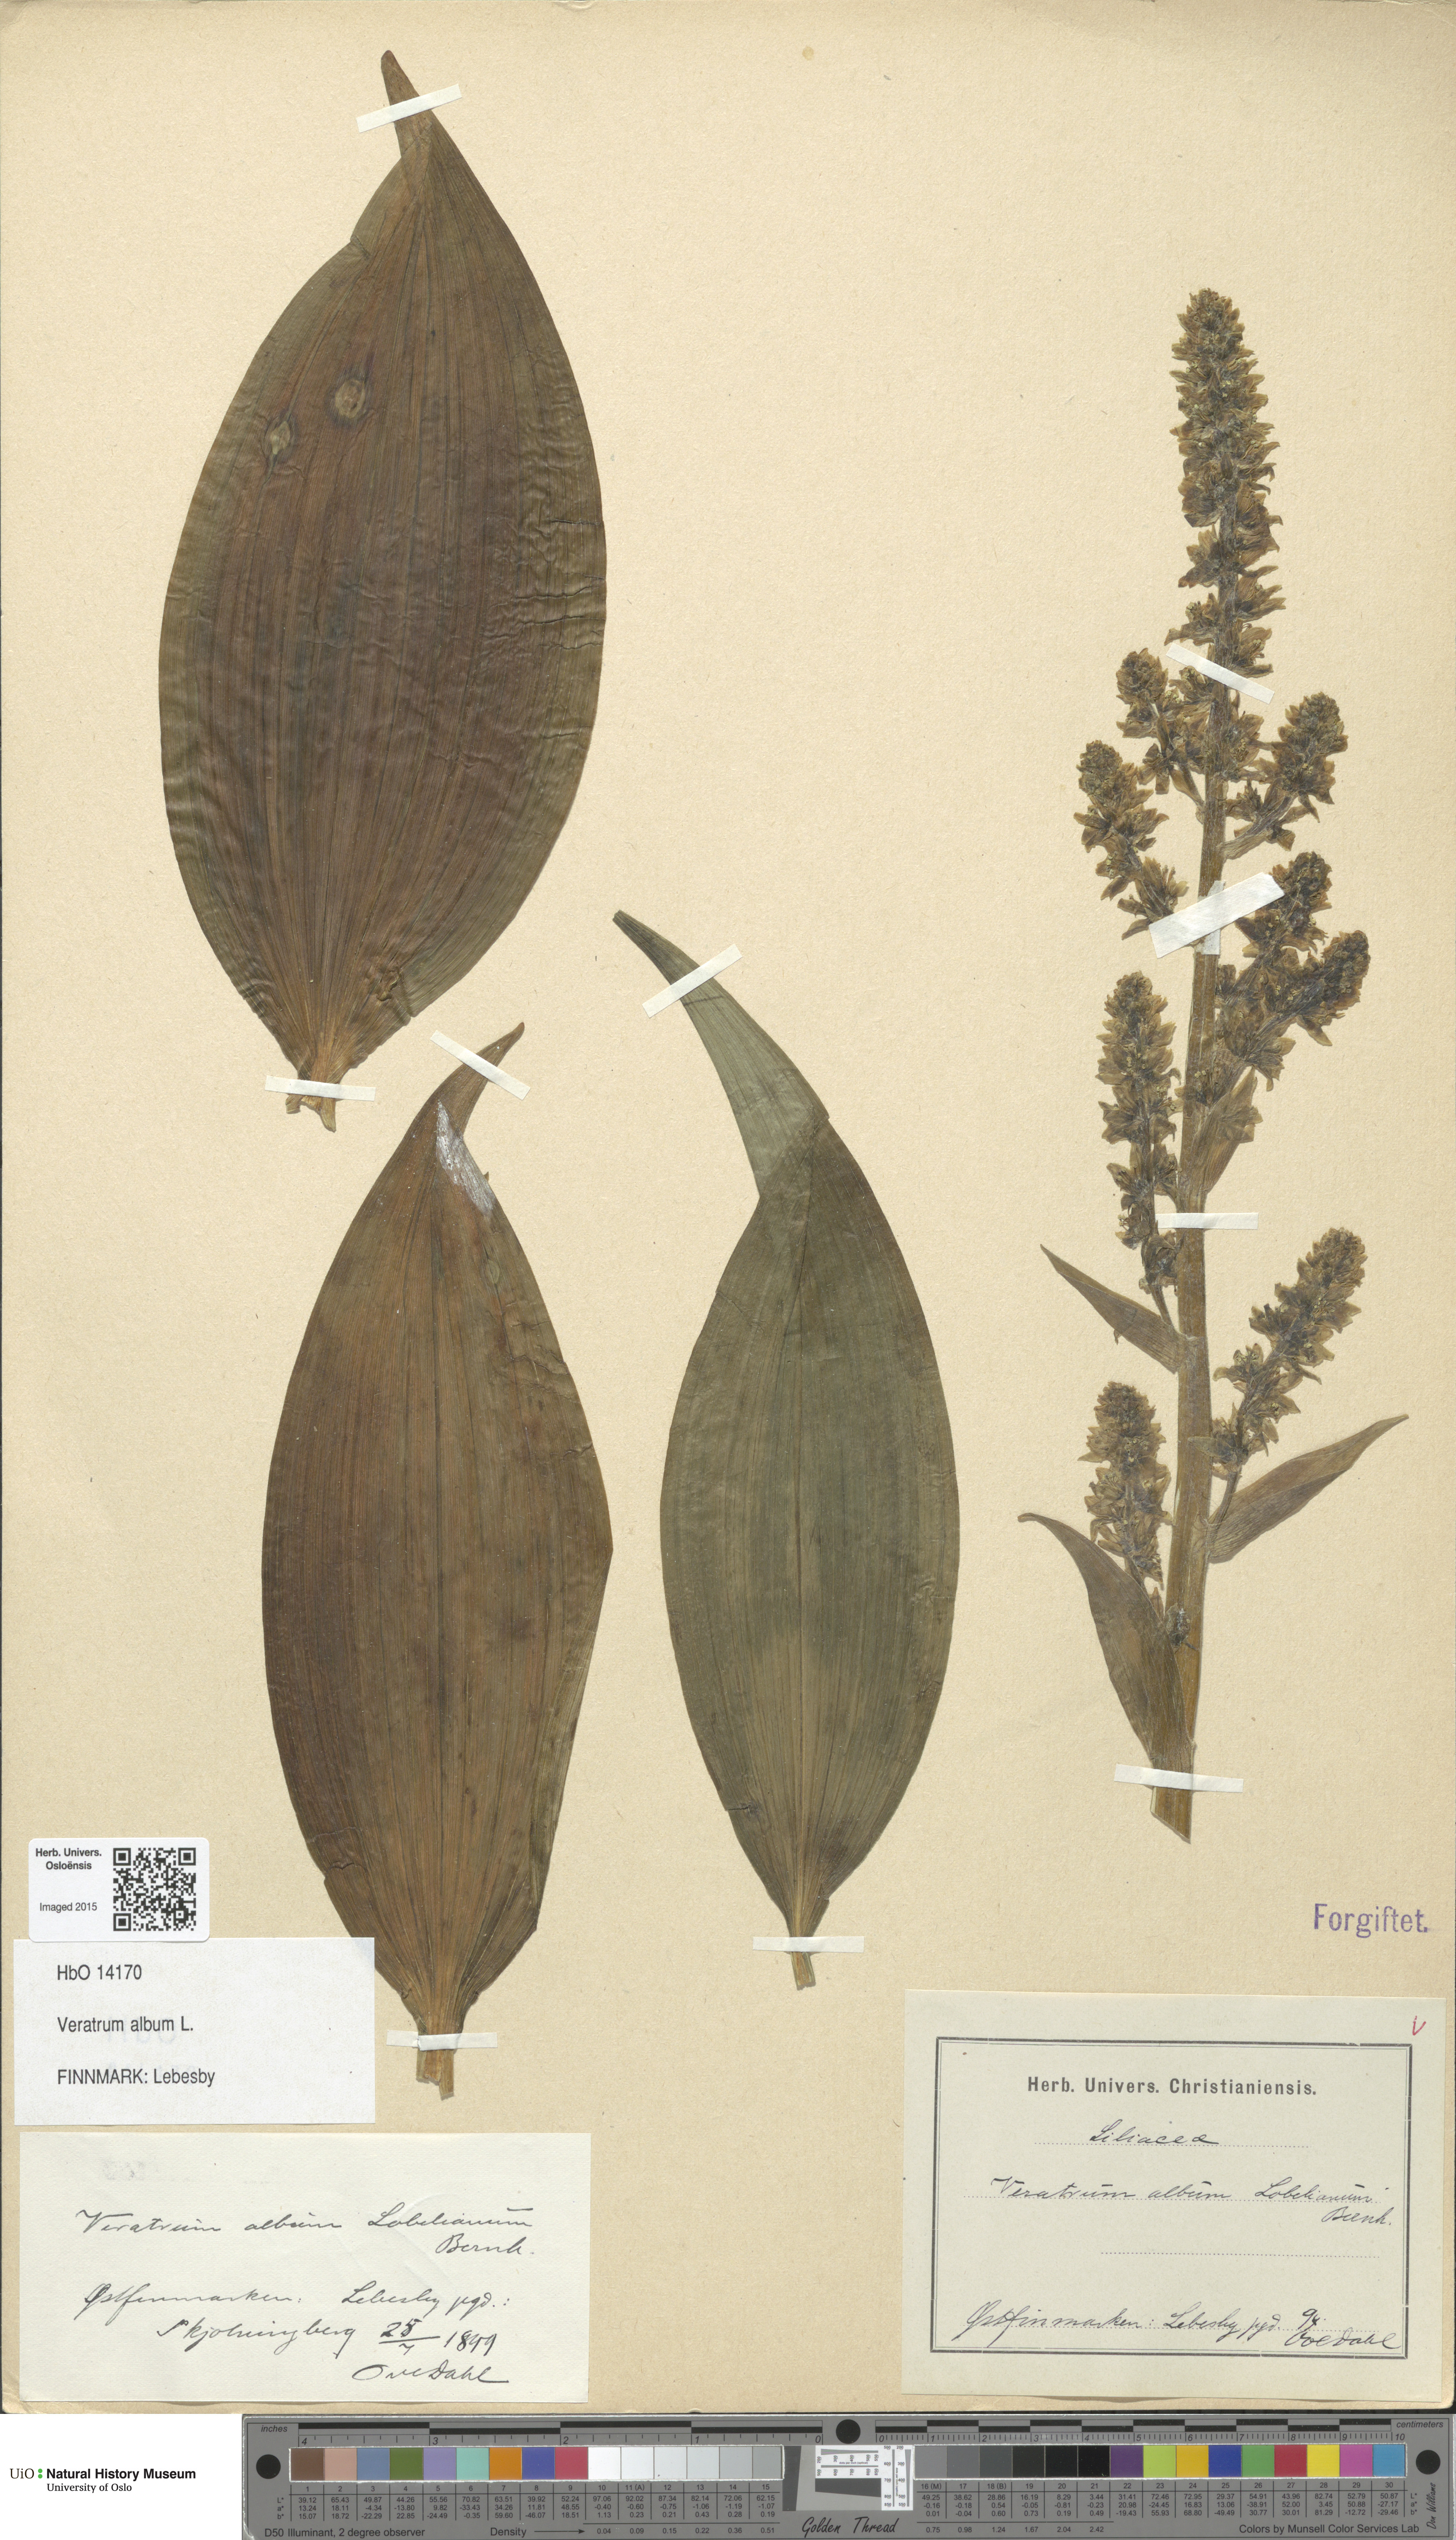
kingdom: Plantae
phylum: Tracheophyta
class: Liliopsida
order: Liliales
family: Melanthiaceae
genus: Veratrum
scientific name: Veratrum album
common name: White veratrum
